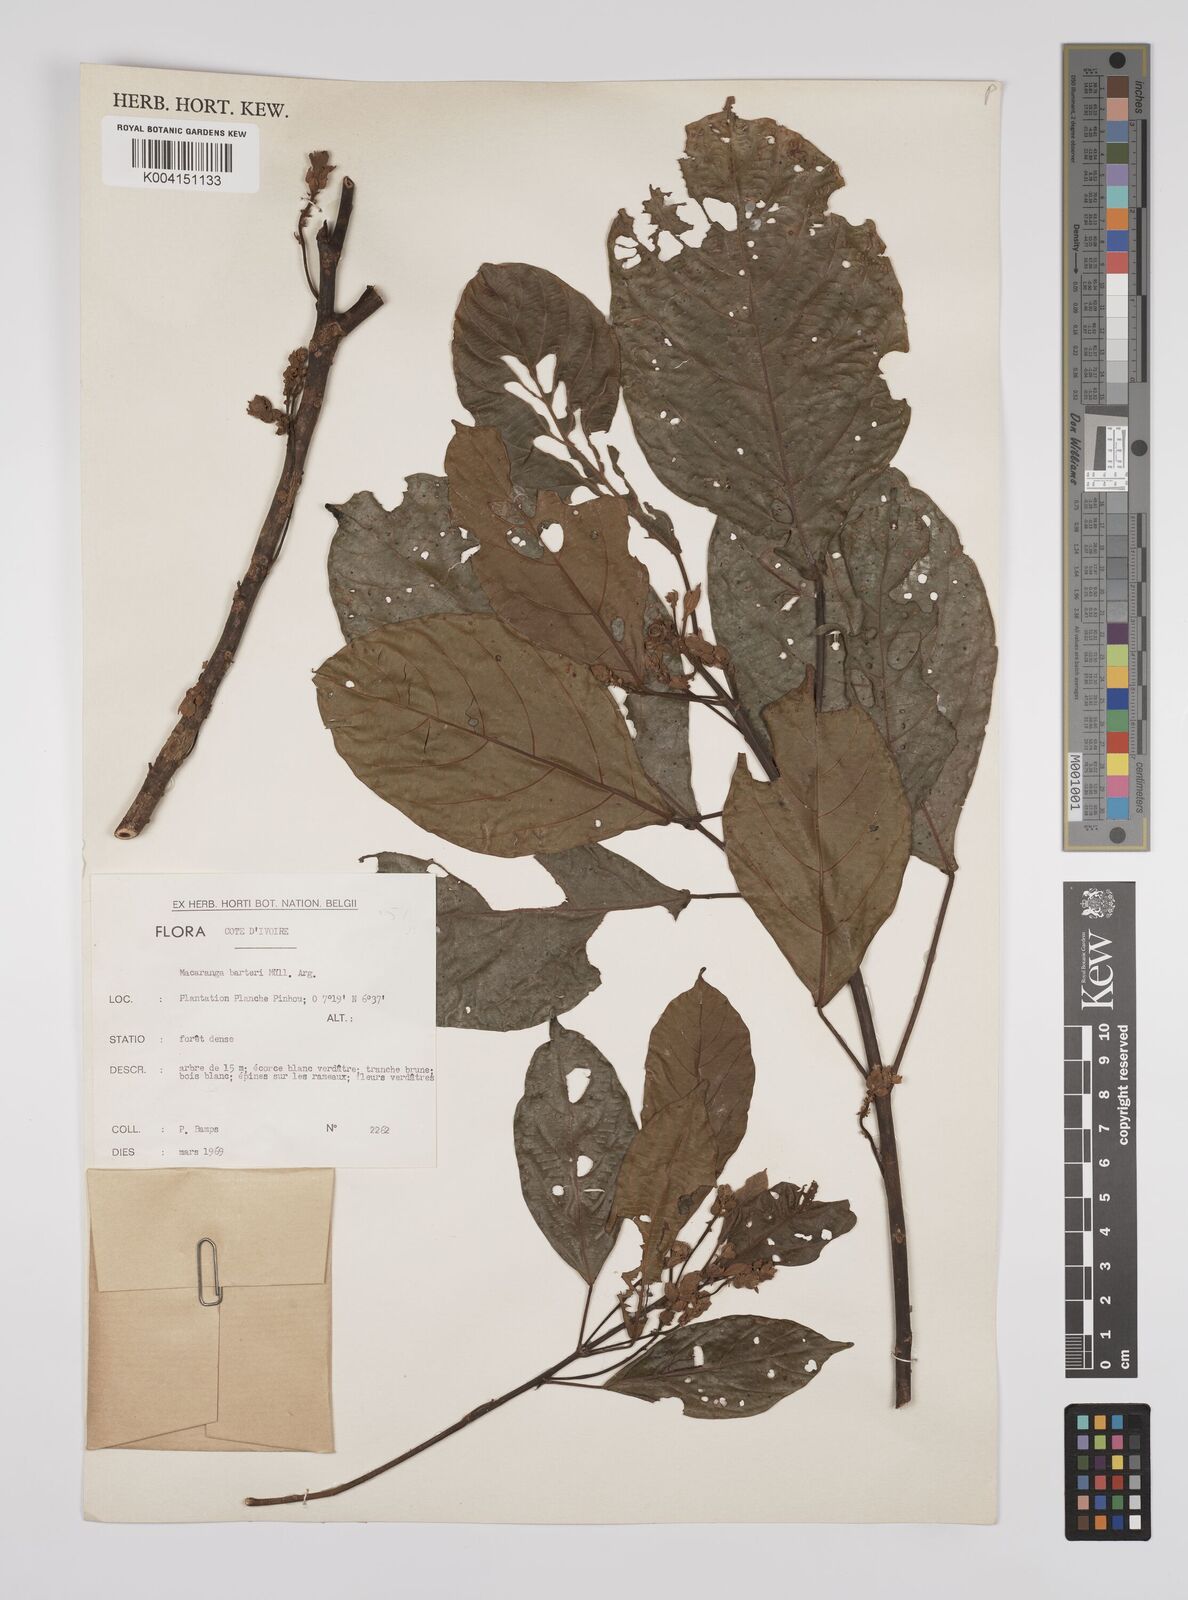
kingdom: Plantae
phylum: Tracheophyta
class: Magnoliopsida
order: Malpighiales
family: Euphorbiaceae
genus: Macaranga
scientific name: Macaranga barteri
